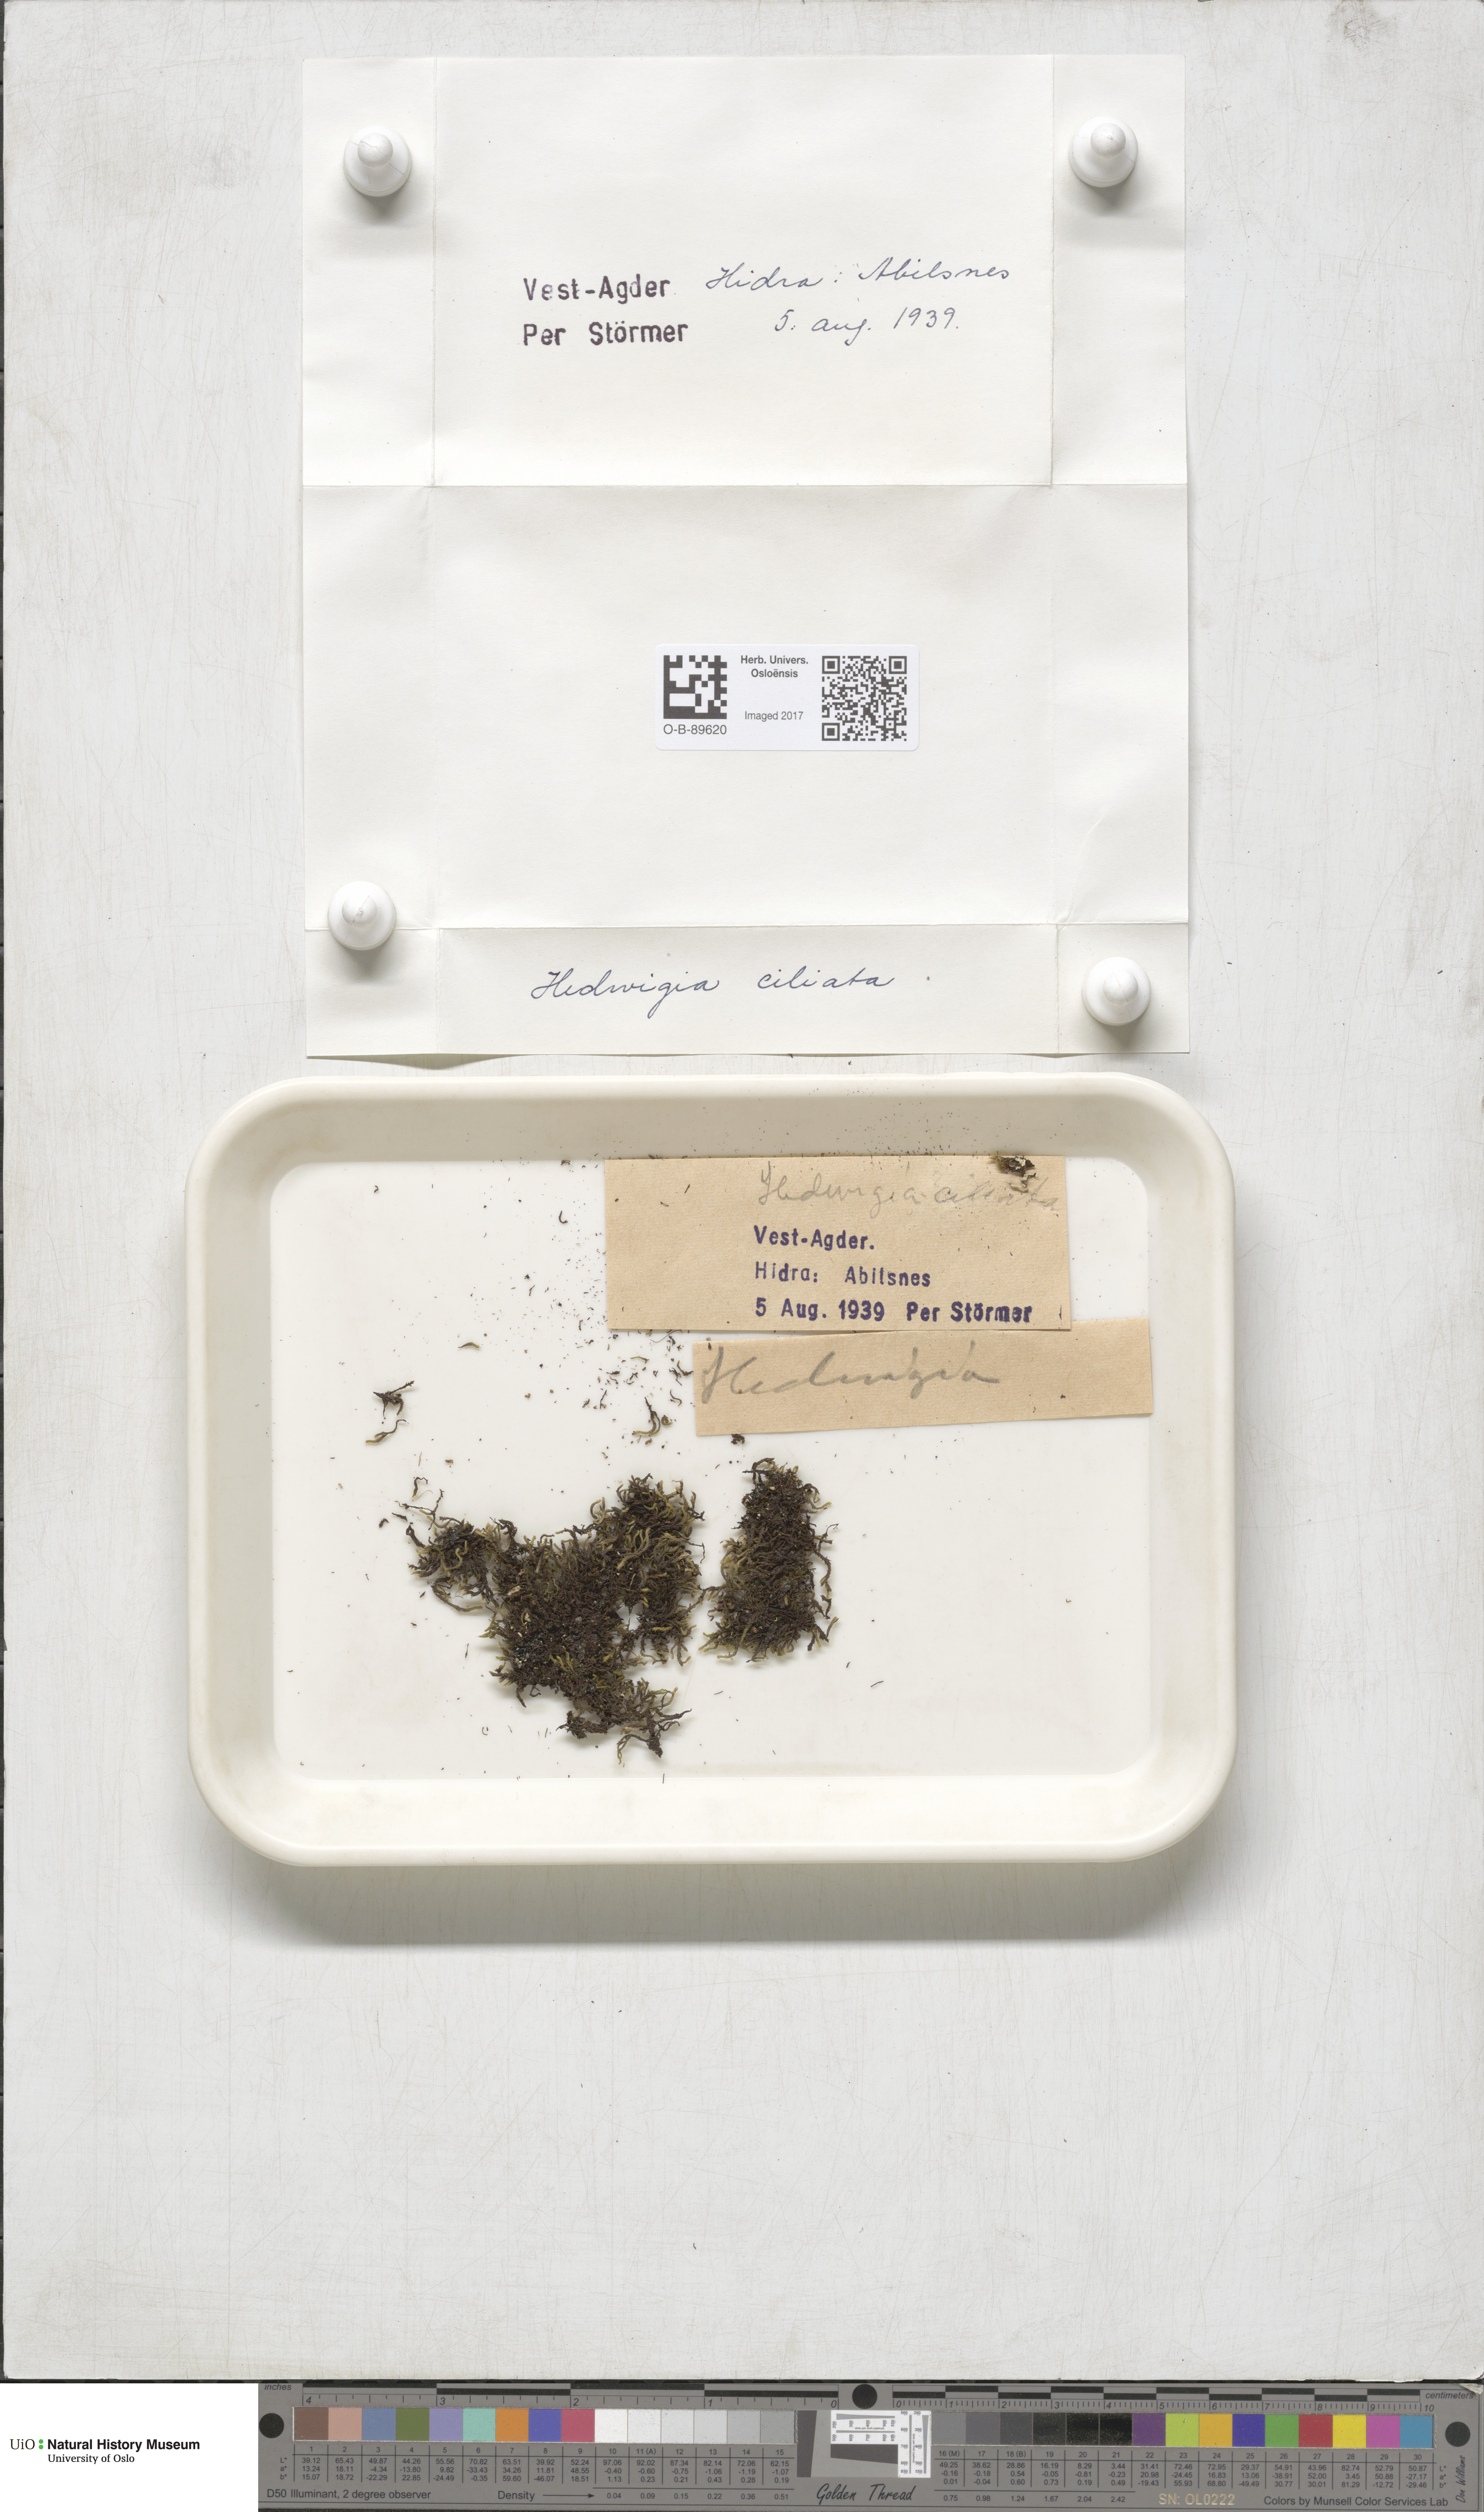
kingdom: Plantae
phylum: Bryophyta
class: Bryopsida
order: Hedwigiales
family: Hedwigiaceae
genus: Hedwigia
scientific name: Hedwigia ciliata
